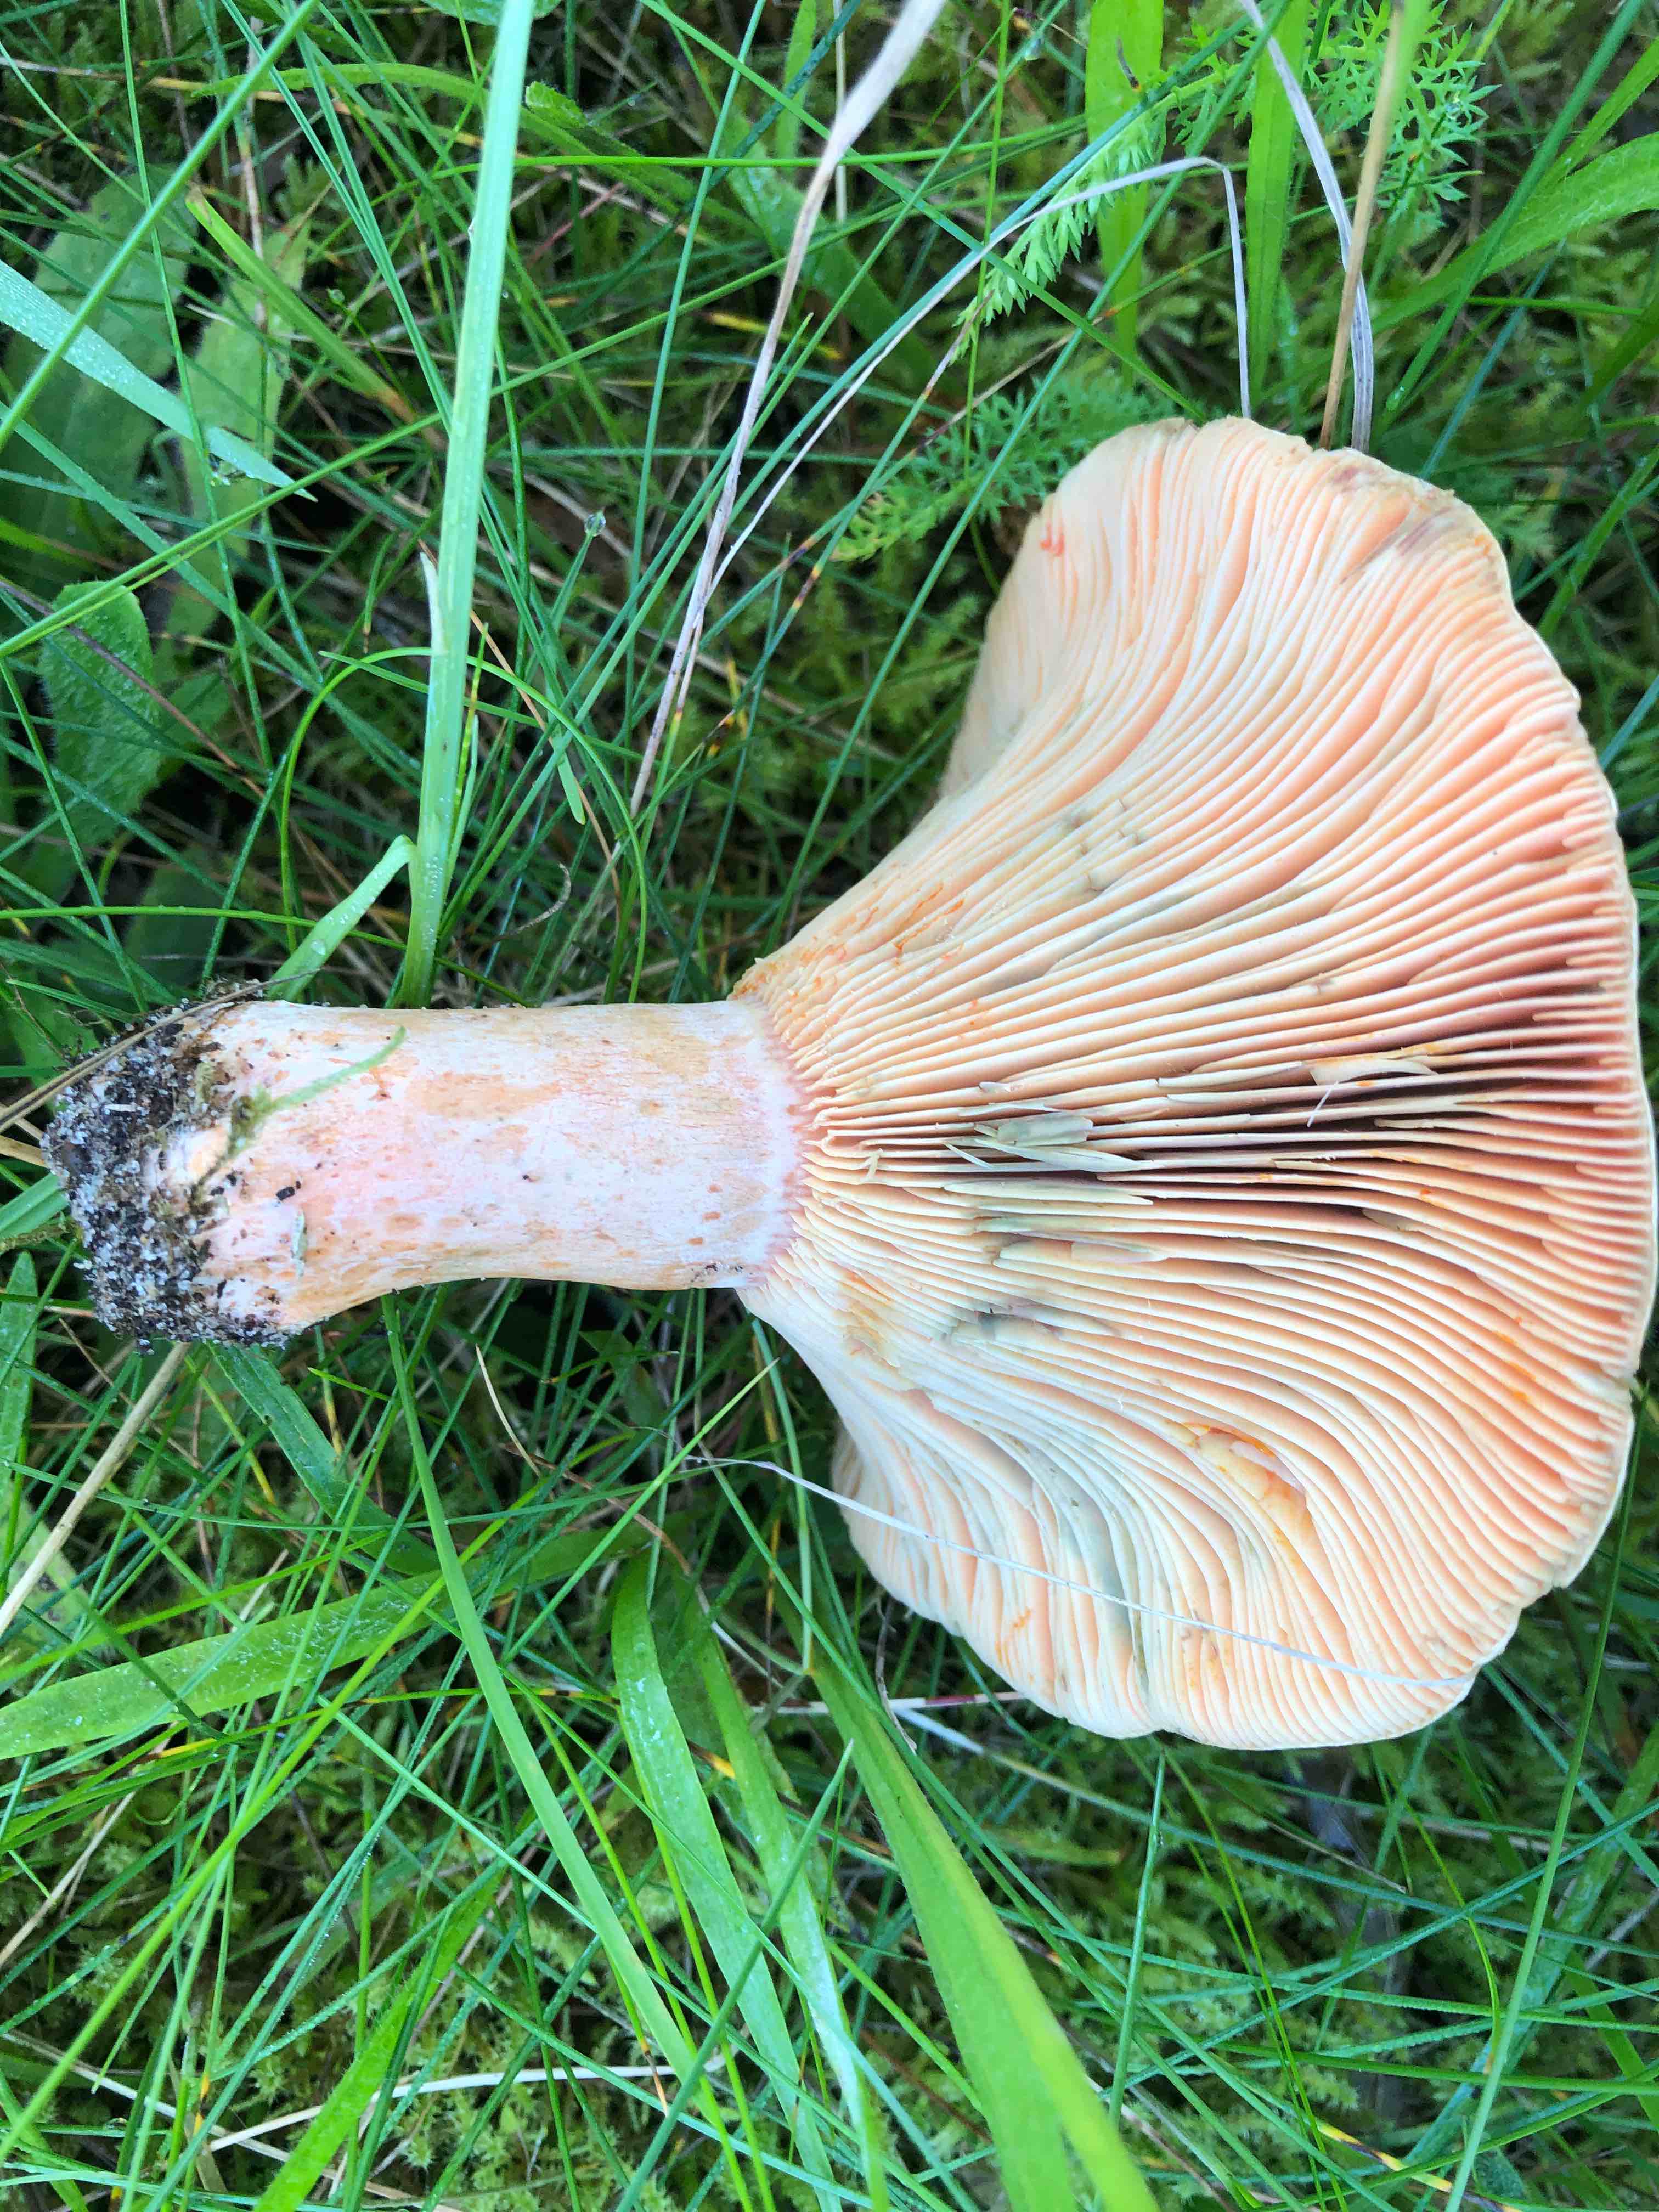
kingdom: Fungi
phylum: Basidiomycota
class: Agaricomycetes
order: Russulales
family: Russulaceae
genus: Lactarius
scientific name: Lactarius
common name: mælkehat
